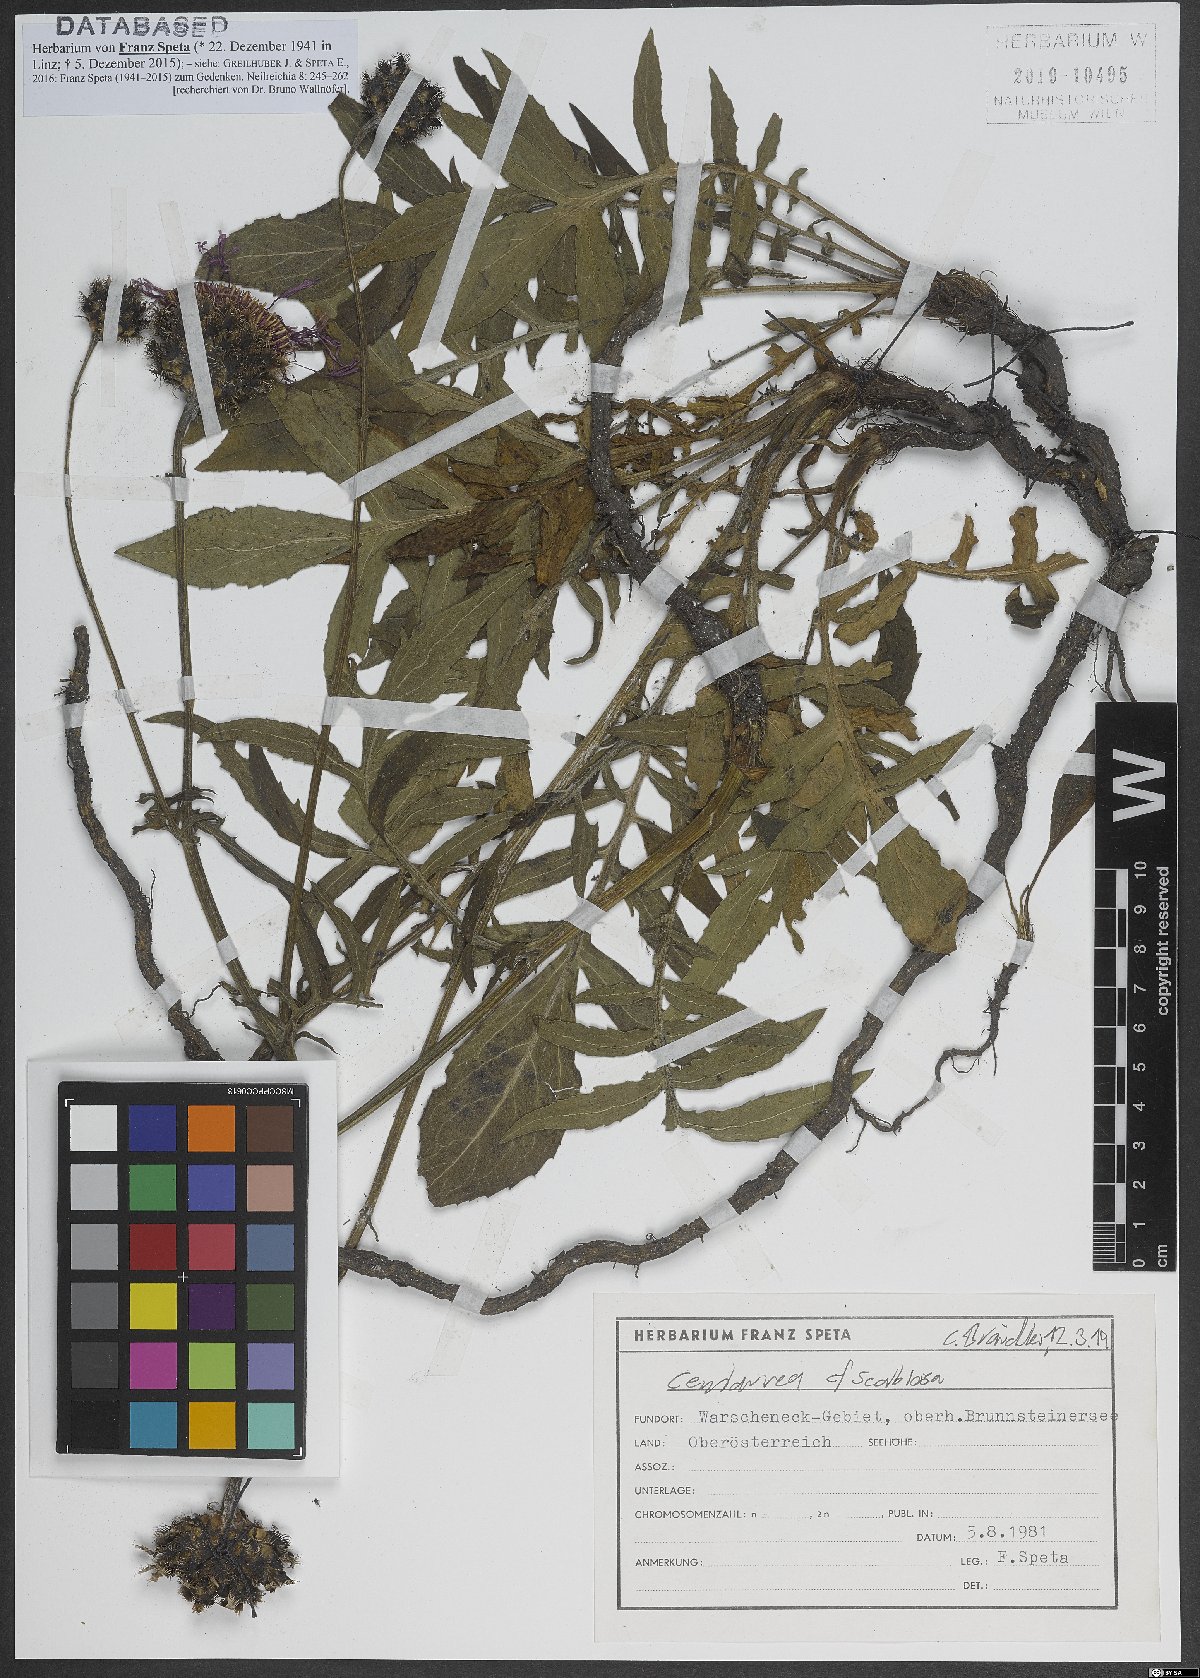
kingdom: Plantae
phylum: Tracheophyta
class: Magnoliopsida
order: Asterales
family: Asteraceae
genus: Centaurea
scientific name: Centaurea scabiosa
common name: Greater knapweed
